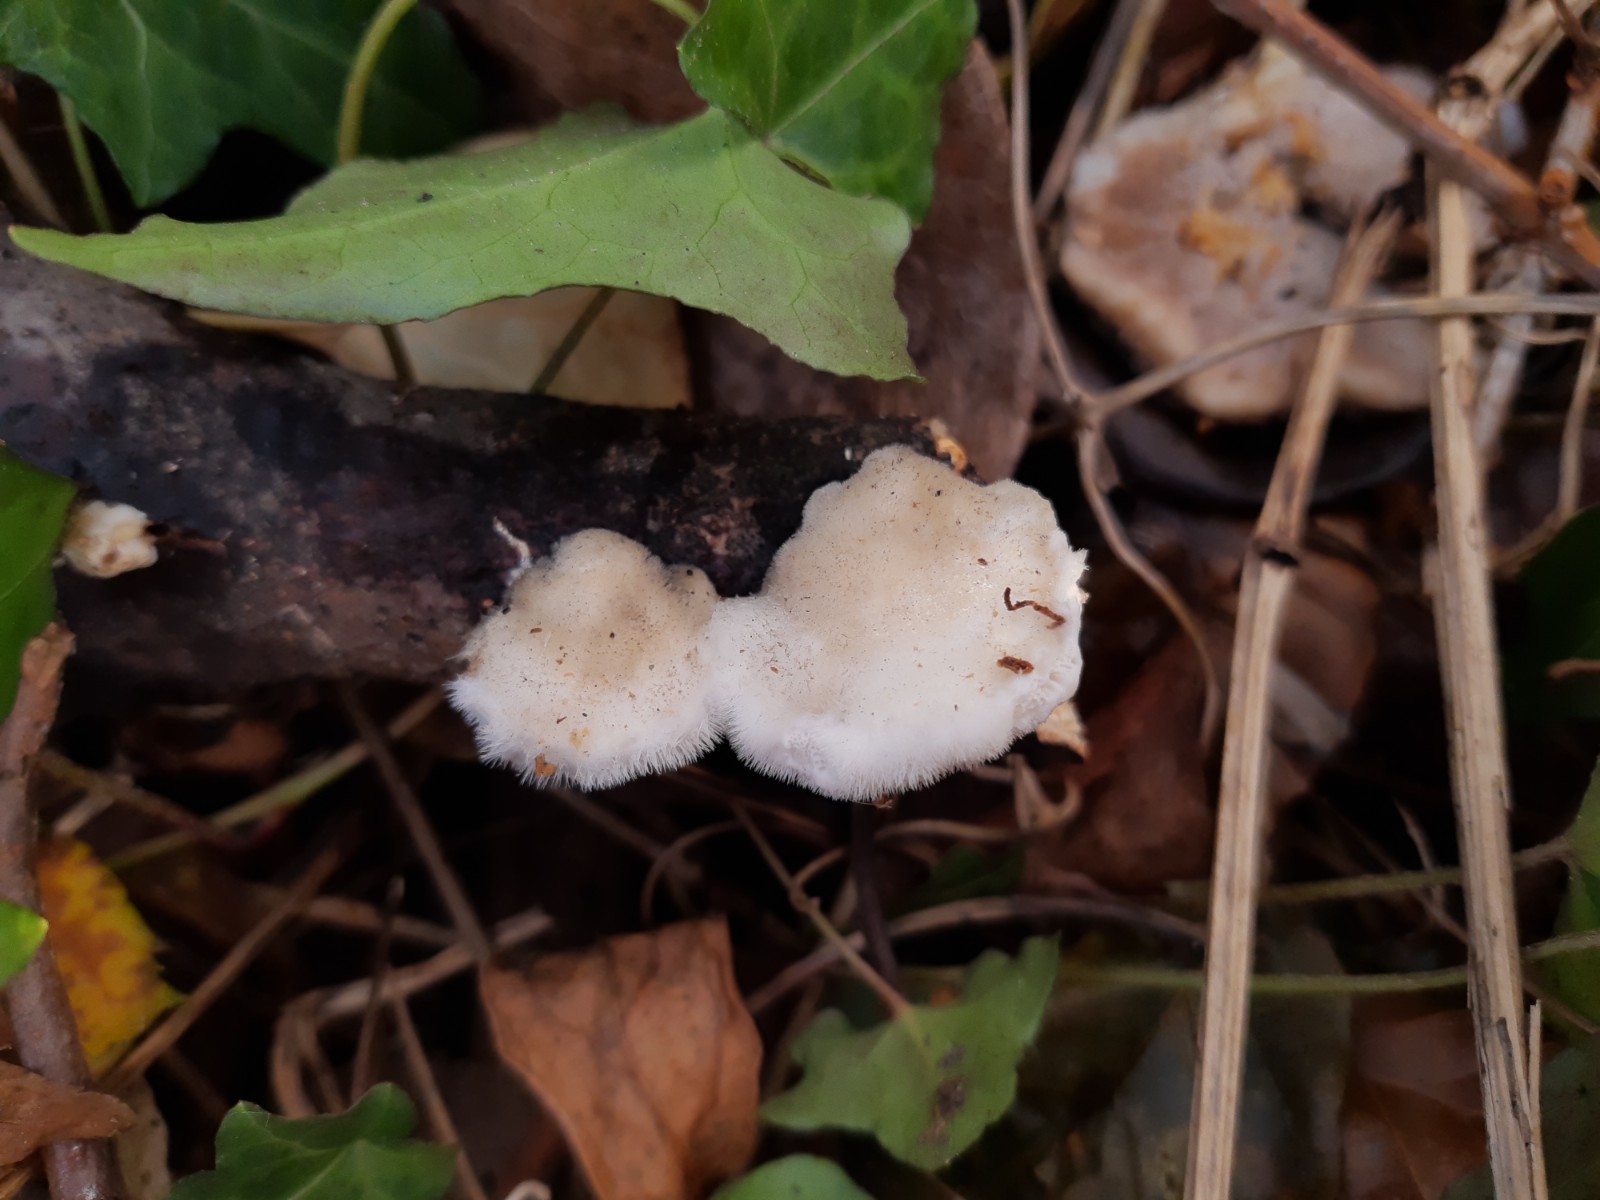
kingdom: Fungi
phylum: Basidiomycota
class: Agaricomycetes
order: Polyporales
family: Polyporaceae
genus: Trametes
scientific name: Trametes hirsuta
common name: håret læderporesvamp
